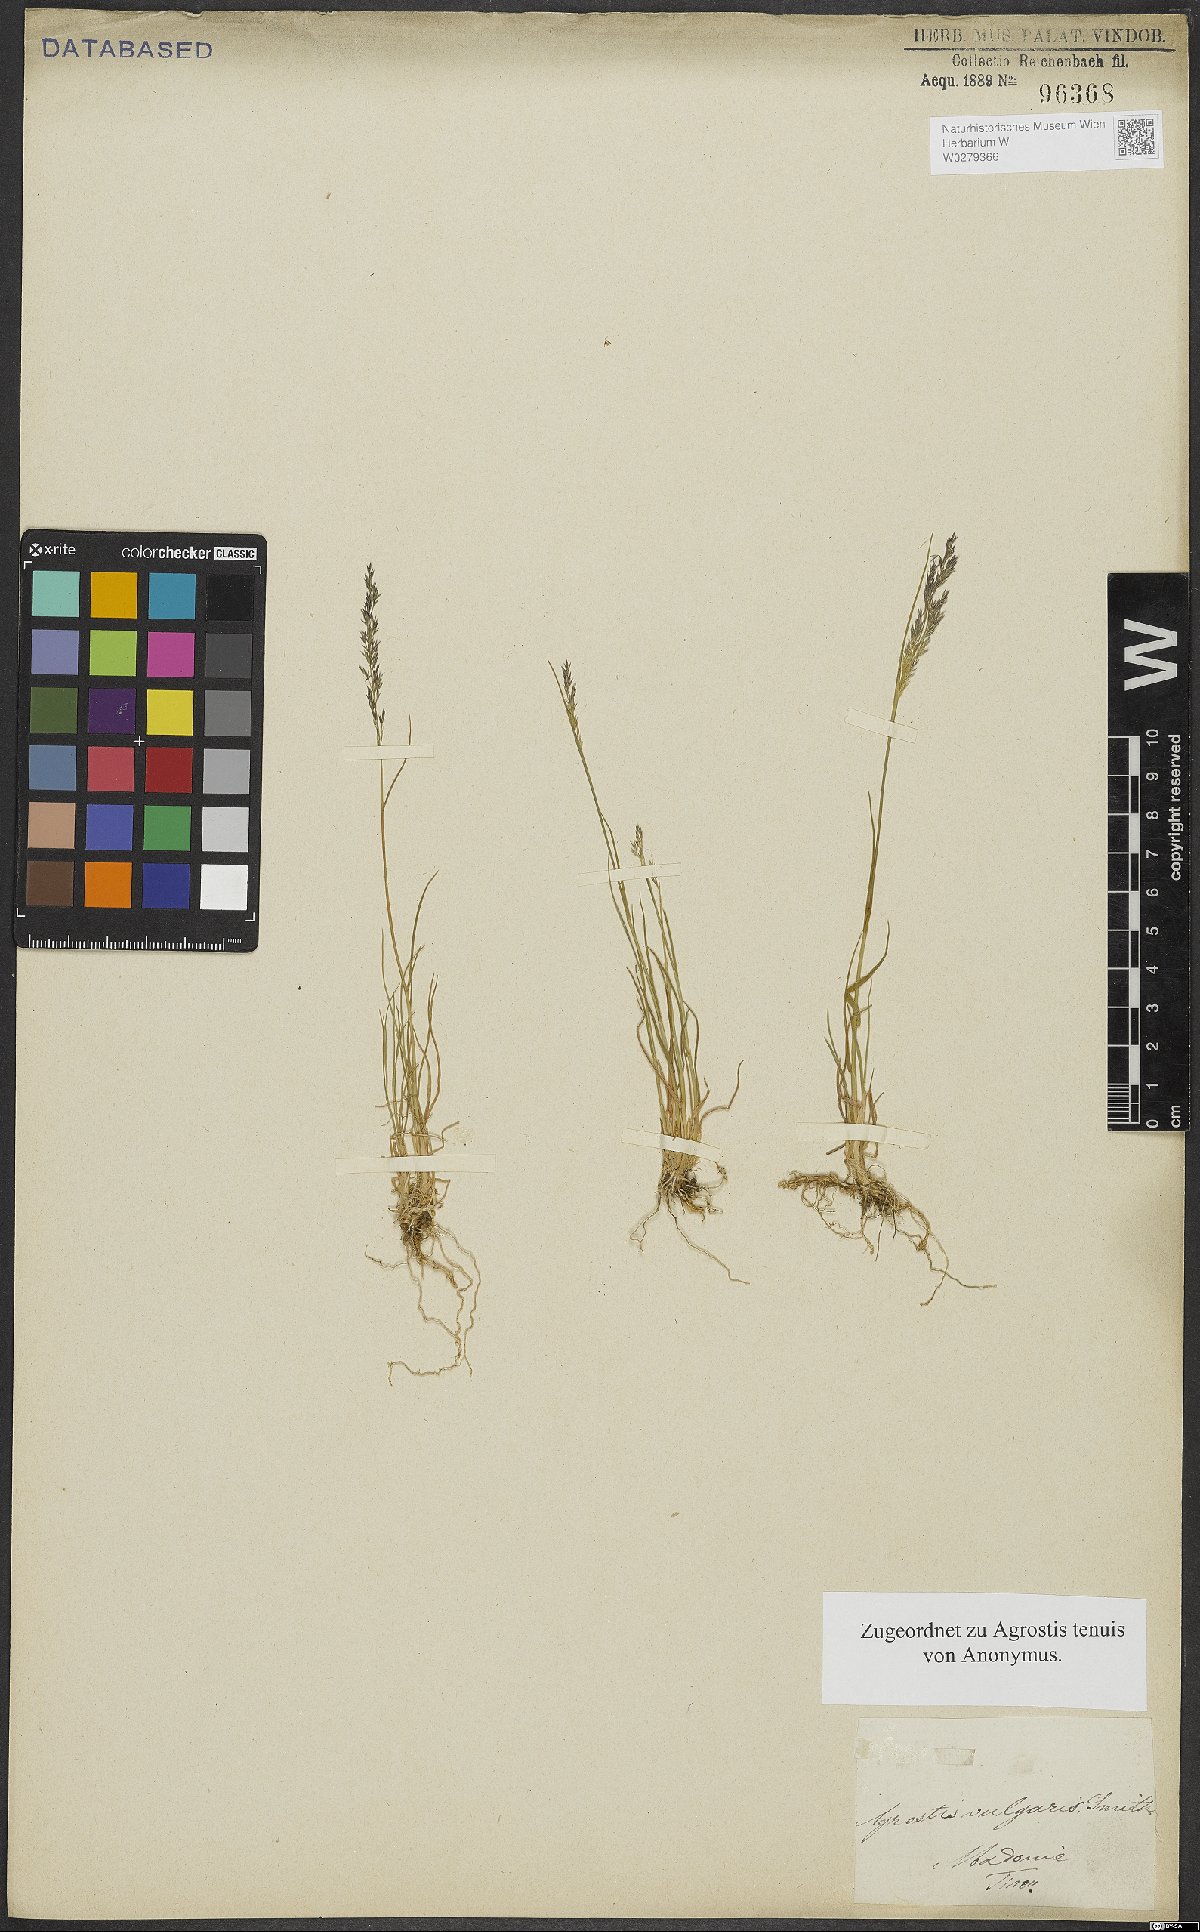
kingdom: Plantae
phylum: Tracheophyta
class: Liliopsida
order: Poales
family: Poaceae
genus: Agrostis
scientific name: Agrostis capillaris
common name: Colonial bentgrass
